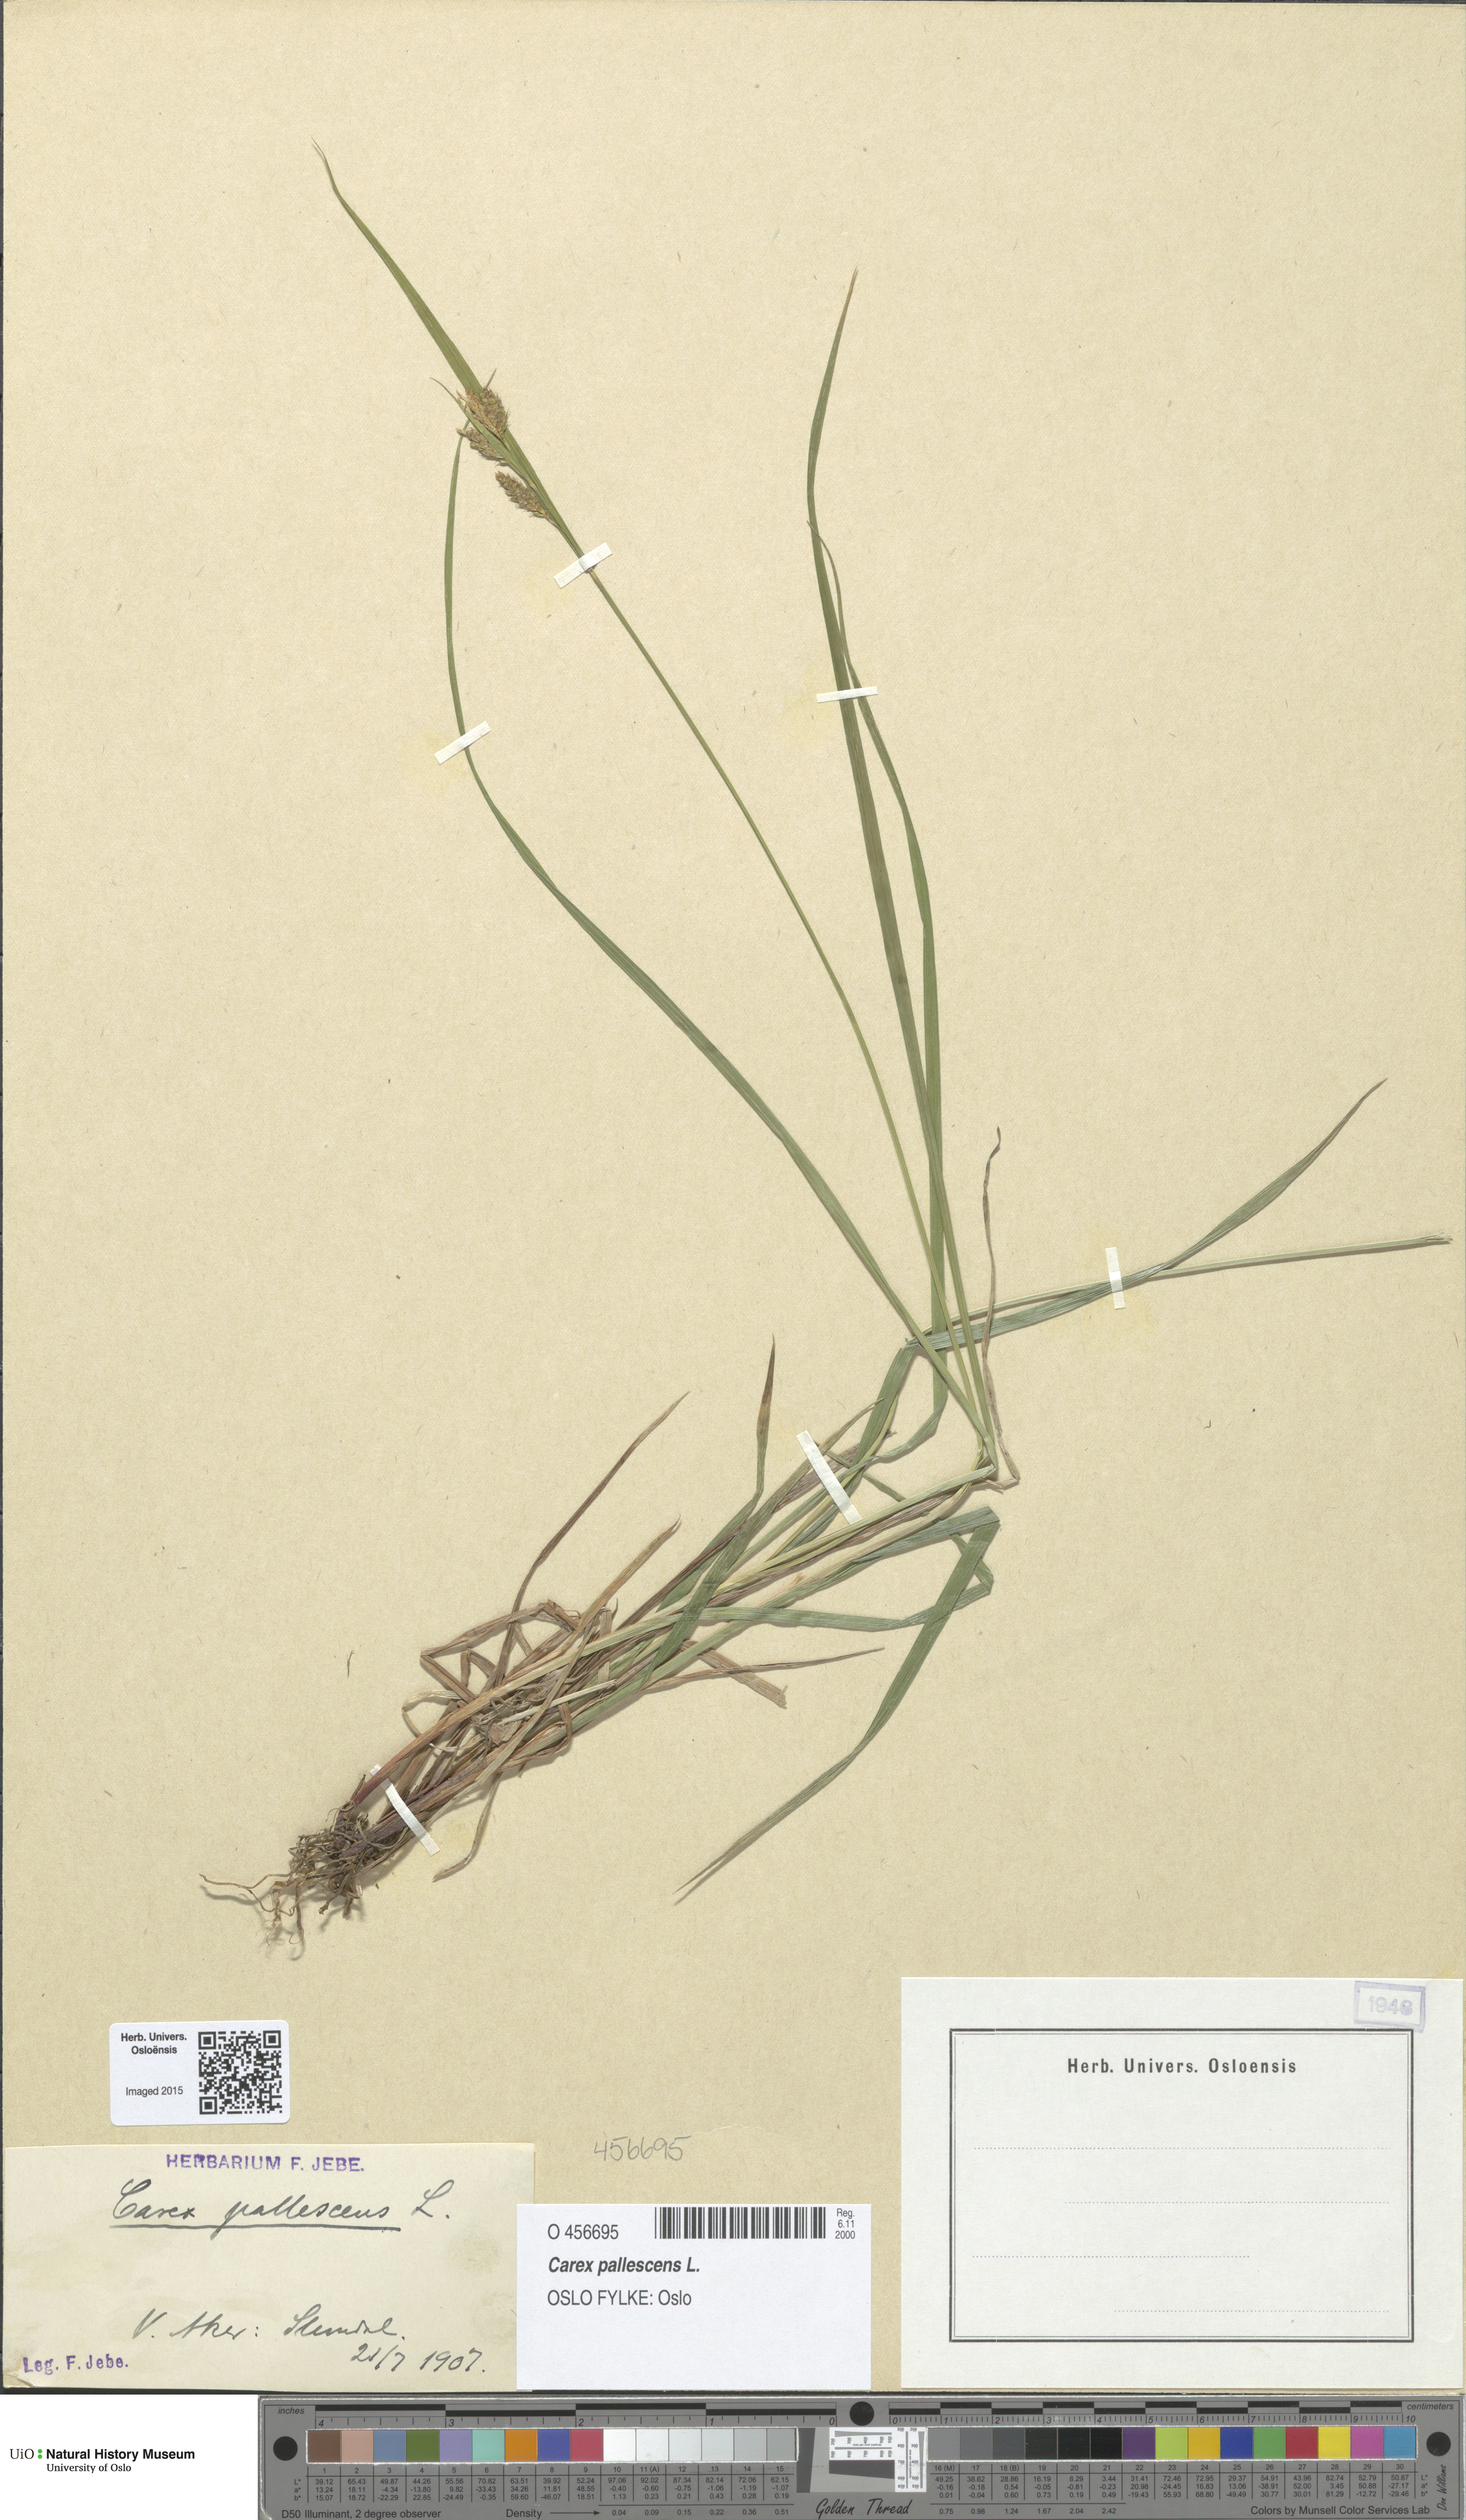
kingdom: Plantae
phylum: Tracheophyta
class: Liliopsida
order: Poales
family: Cyperaceae
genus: Carex
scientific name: Carex pallescens
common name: Pale sedge
